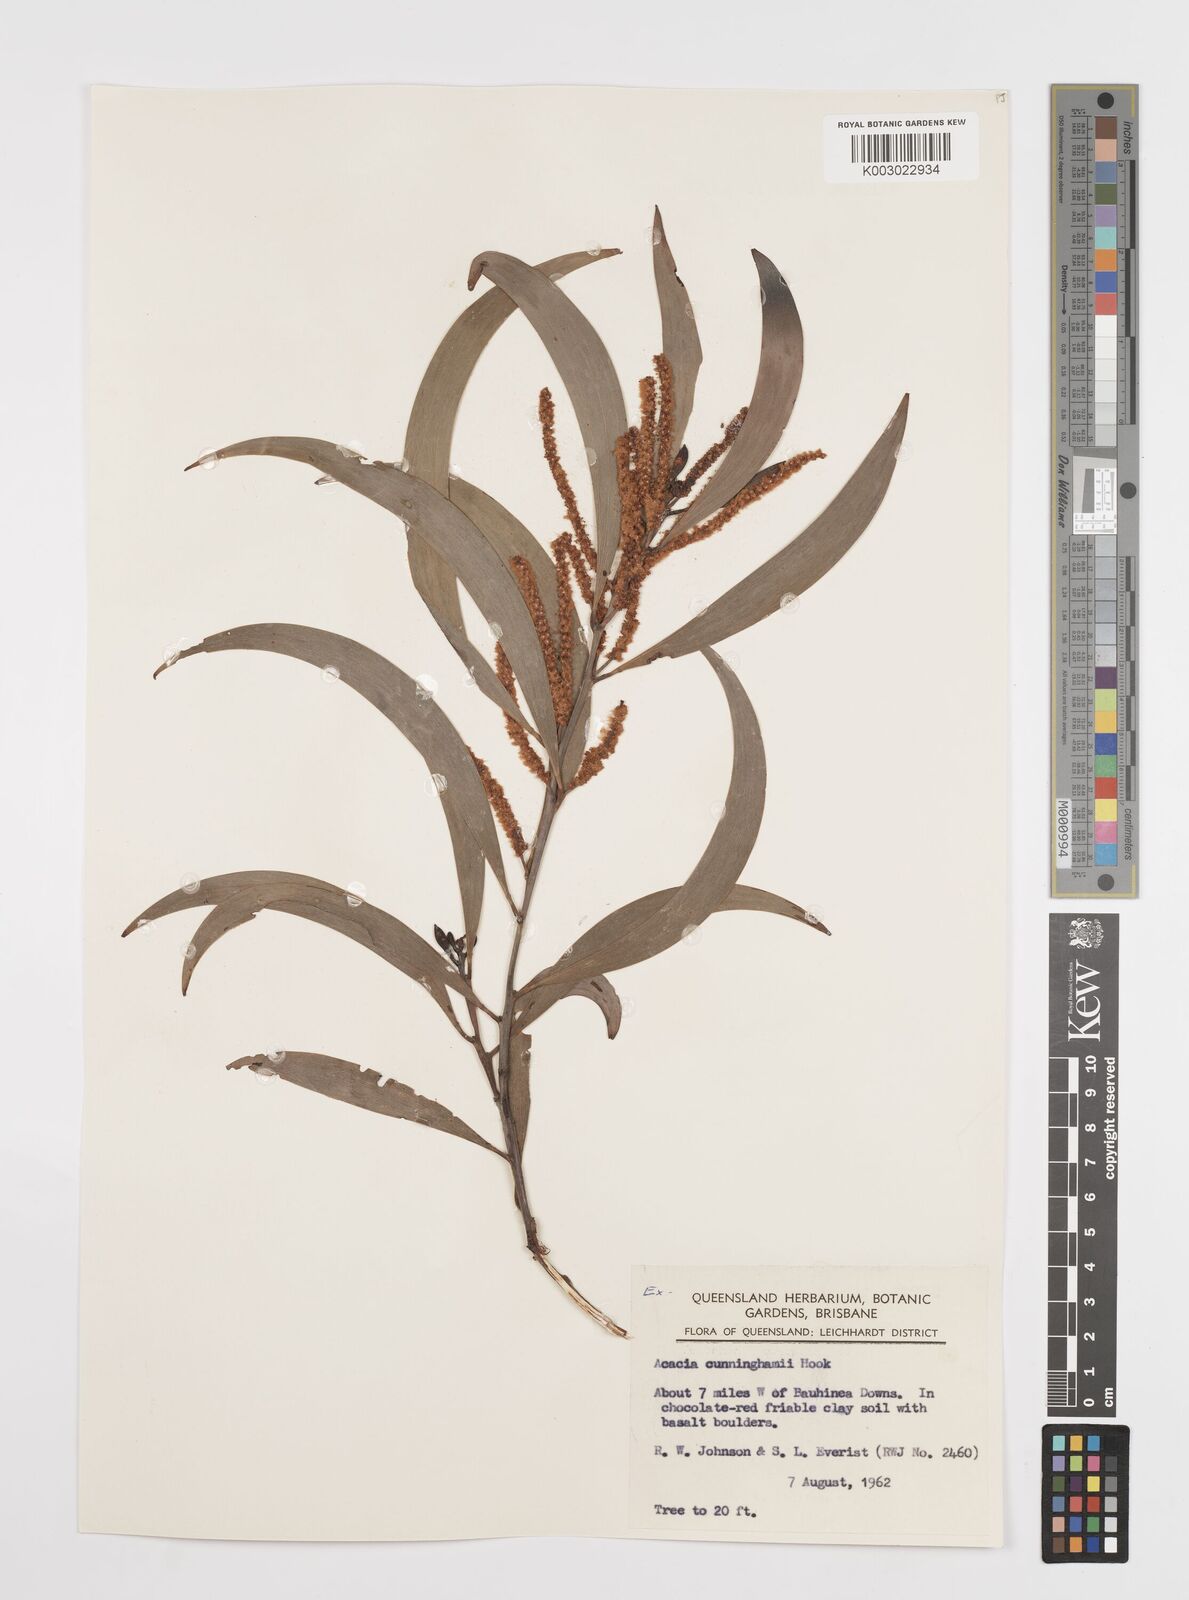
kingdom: Plantae
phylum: Tracheophyta
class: Magnoliopsida
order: Fabales
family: Fabaceae
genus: Acacia
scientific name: Acacia longispicata
